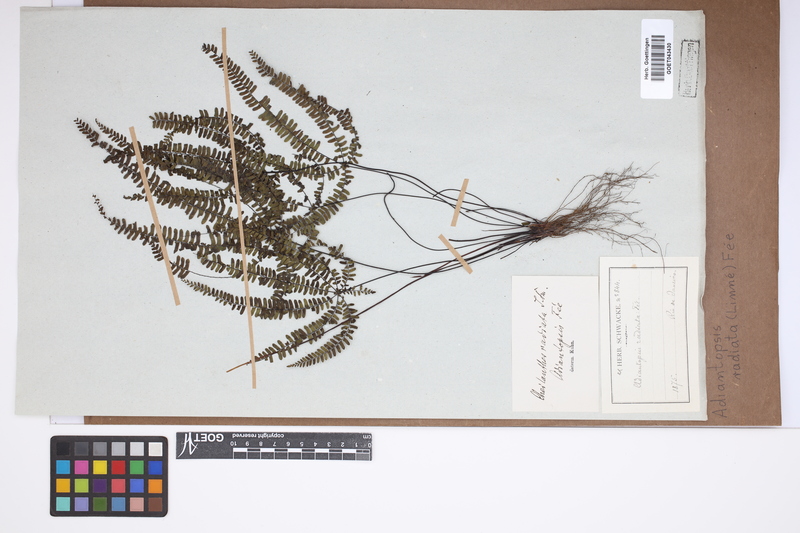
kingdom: Plantae
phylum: Tracheophyta
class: Polypodiopsida
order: Polypodiales
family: Pteridaceae
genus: Adiantopsis
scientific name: Adiantopsis radiata
